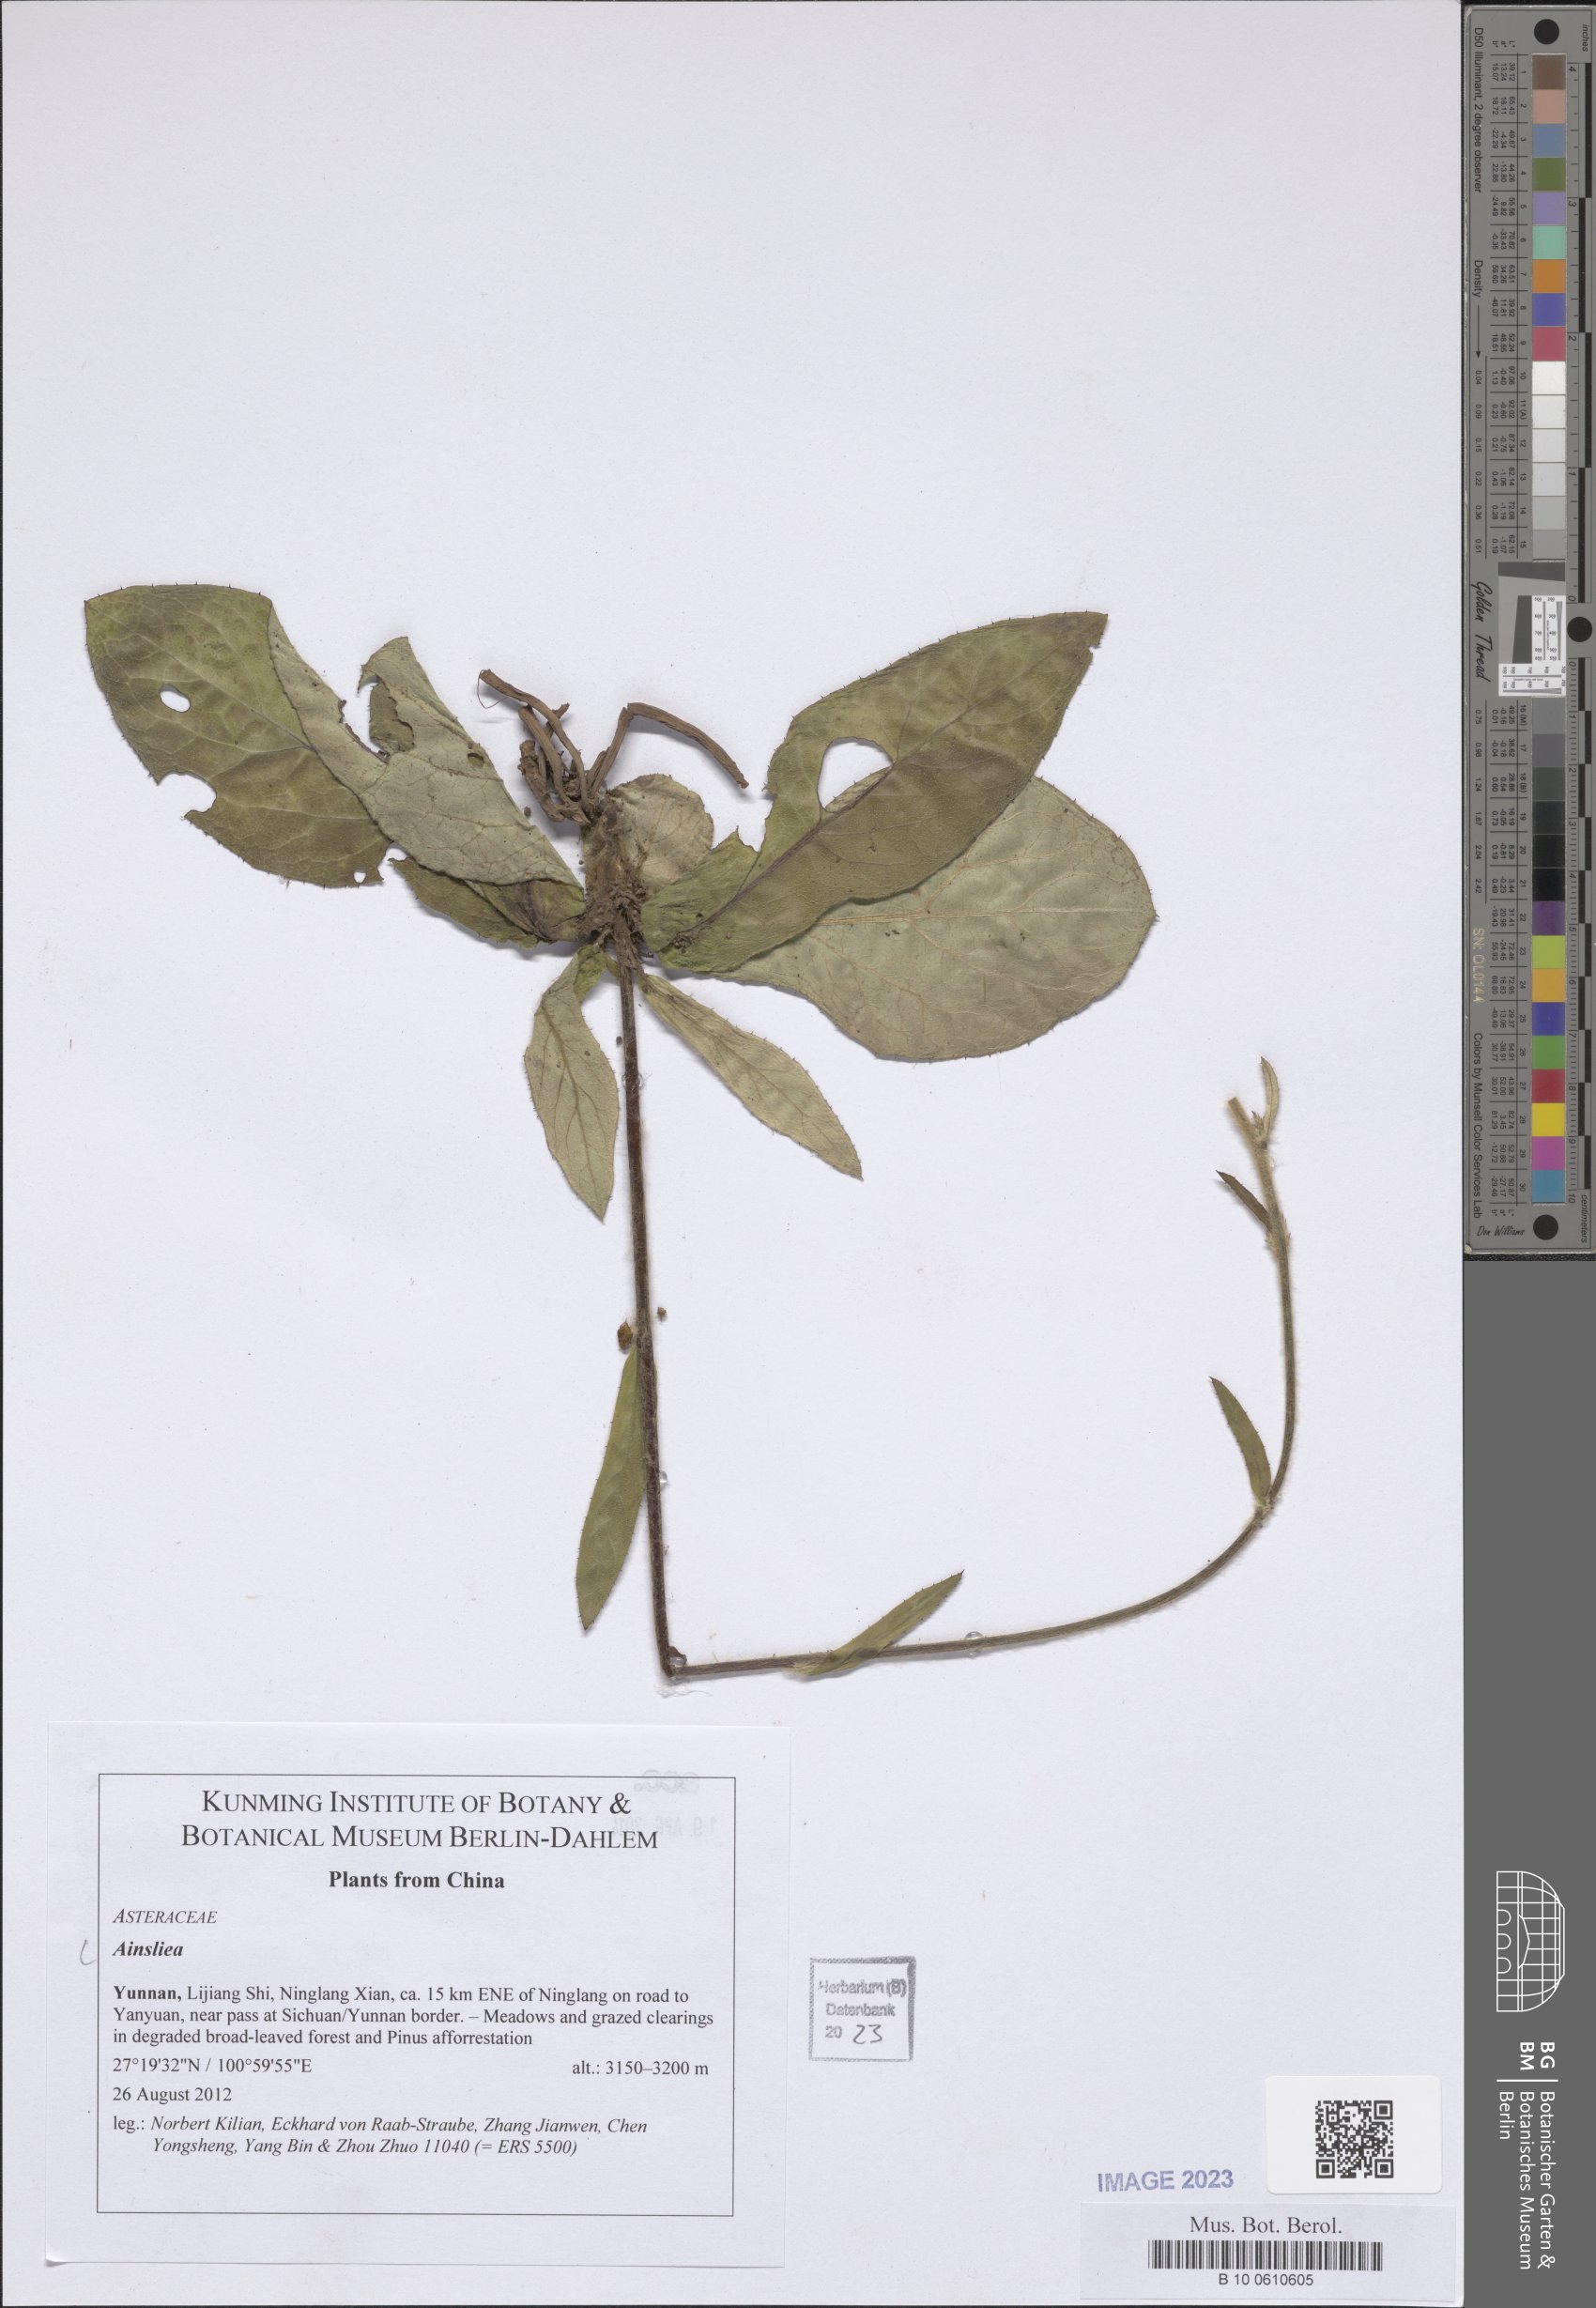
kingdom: Plantae
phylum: Tracheophyta
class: Magnoliopsida
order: Asterales
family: Asteraceae
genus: Ainsliaea
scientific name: Ainsliaea
